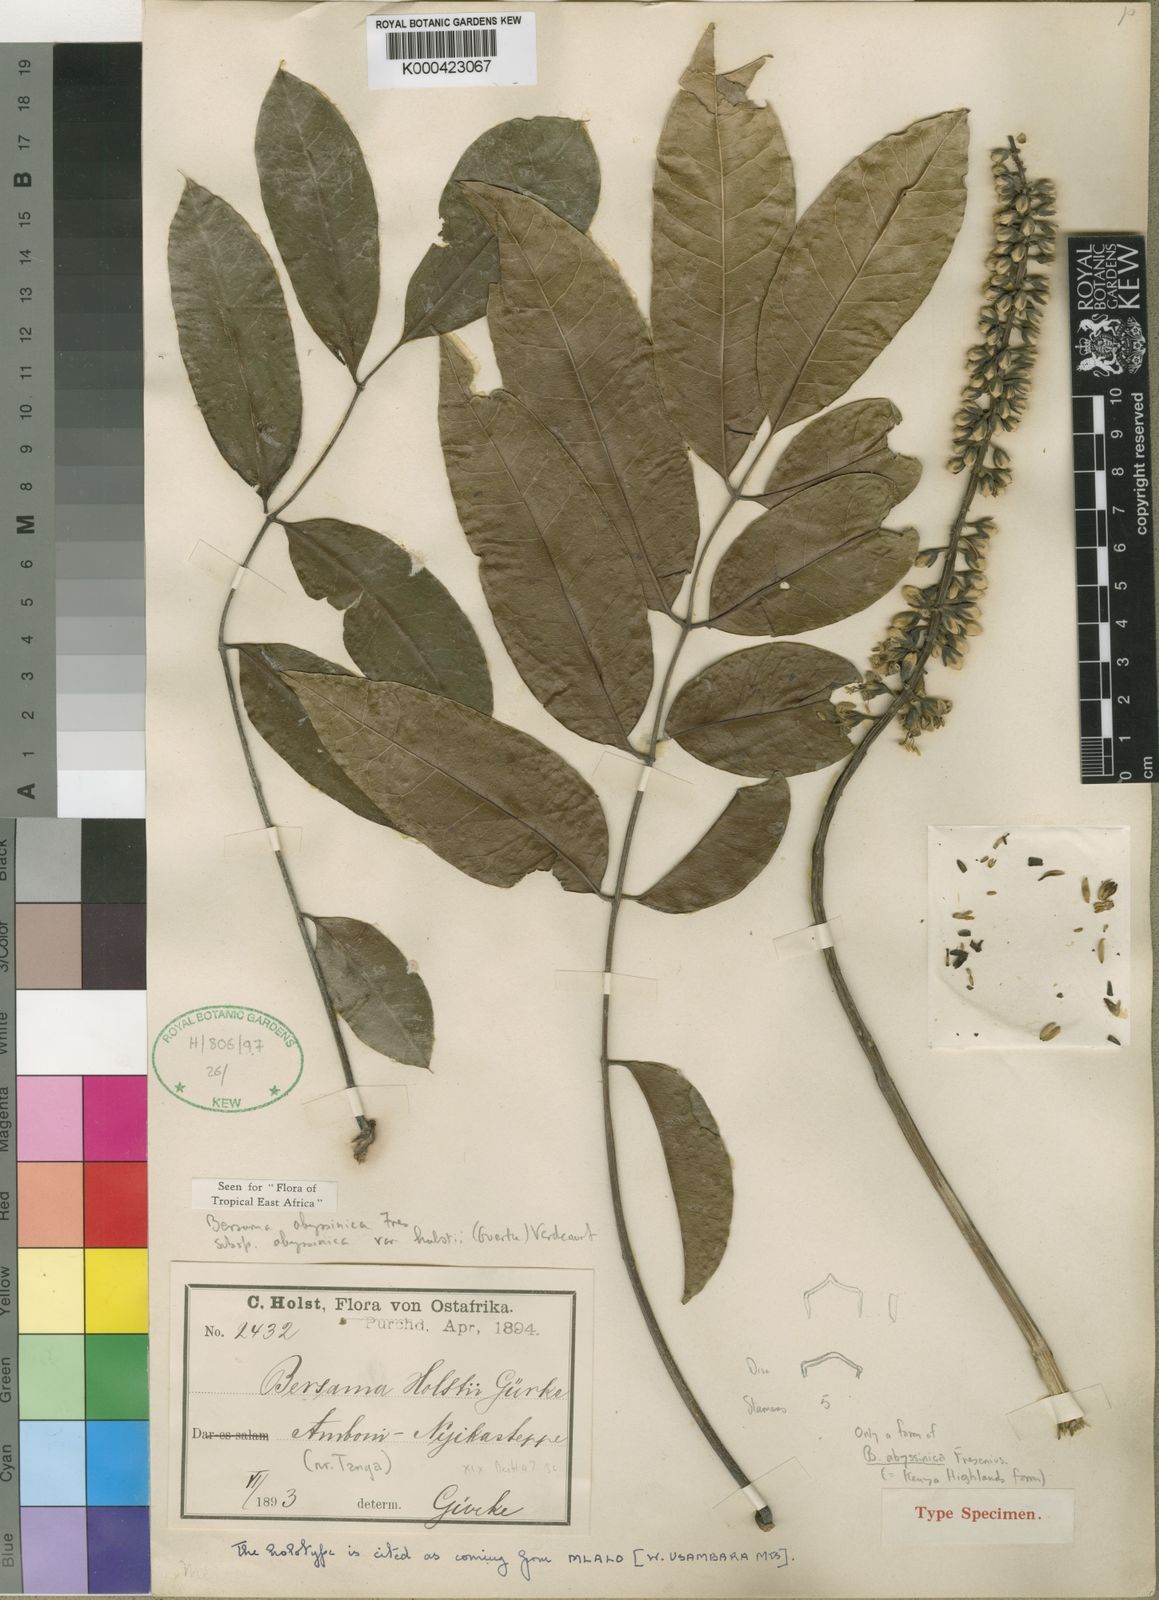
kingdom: Plantae
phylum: Tracheophyta
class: Magnoliopsida
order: Geraniales
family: Melianthaceae
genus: Bersama
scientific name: Bersama abyssinica
